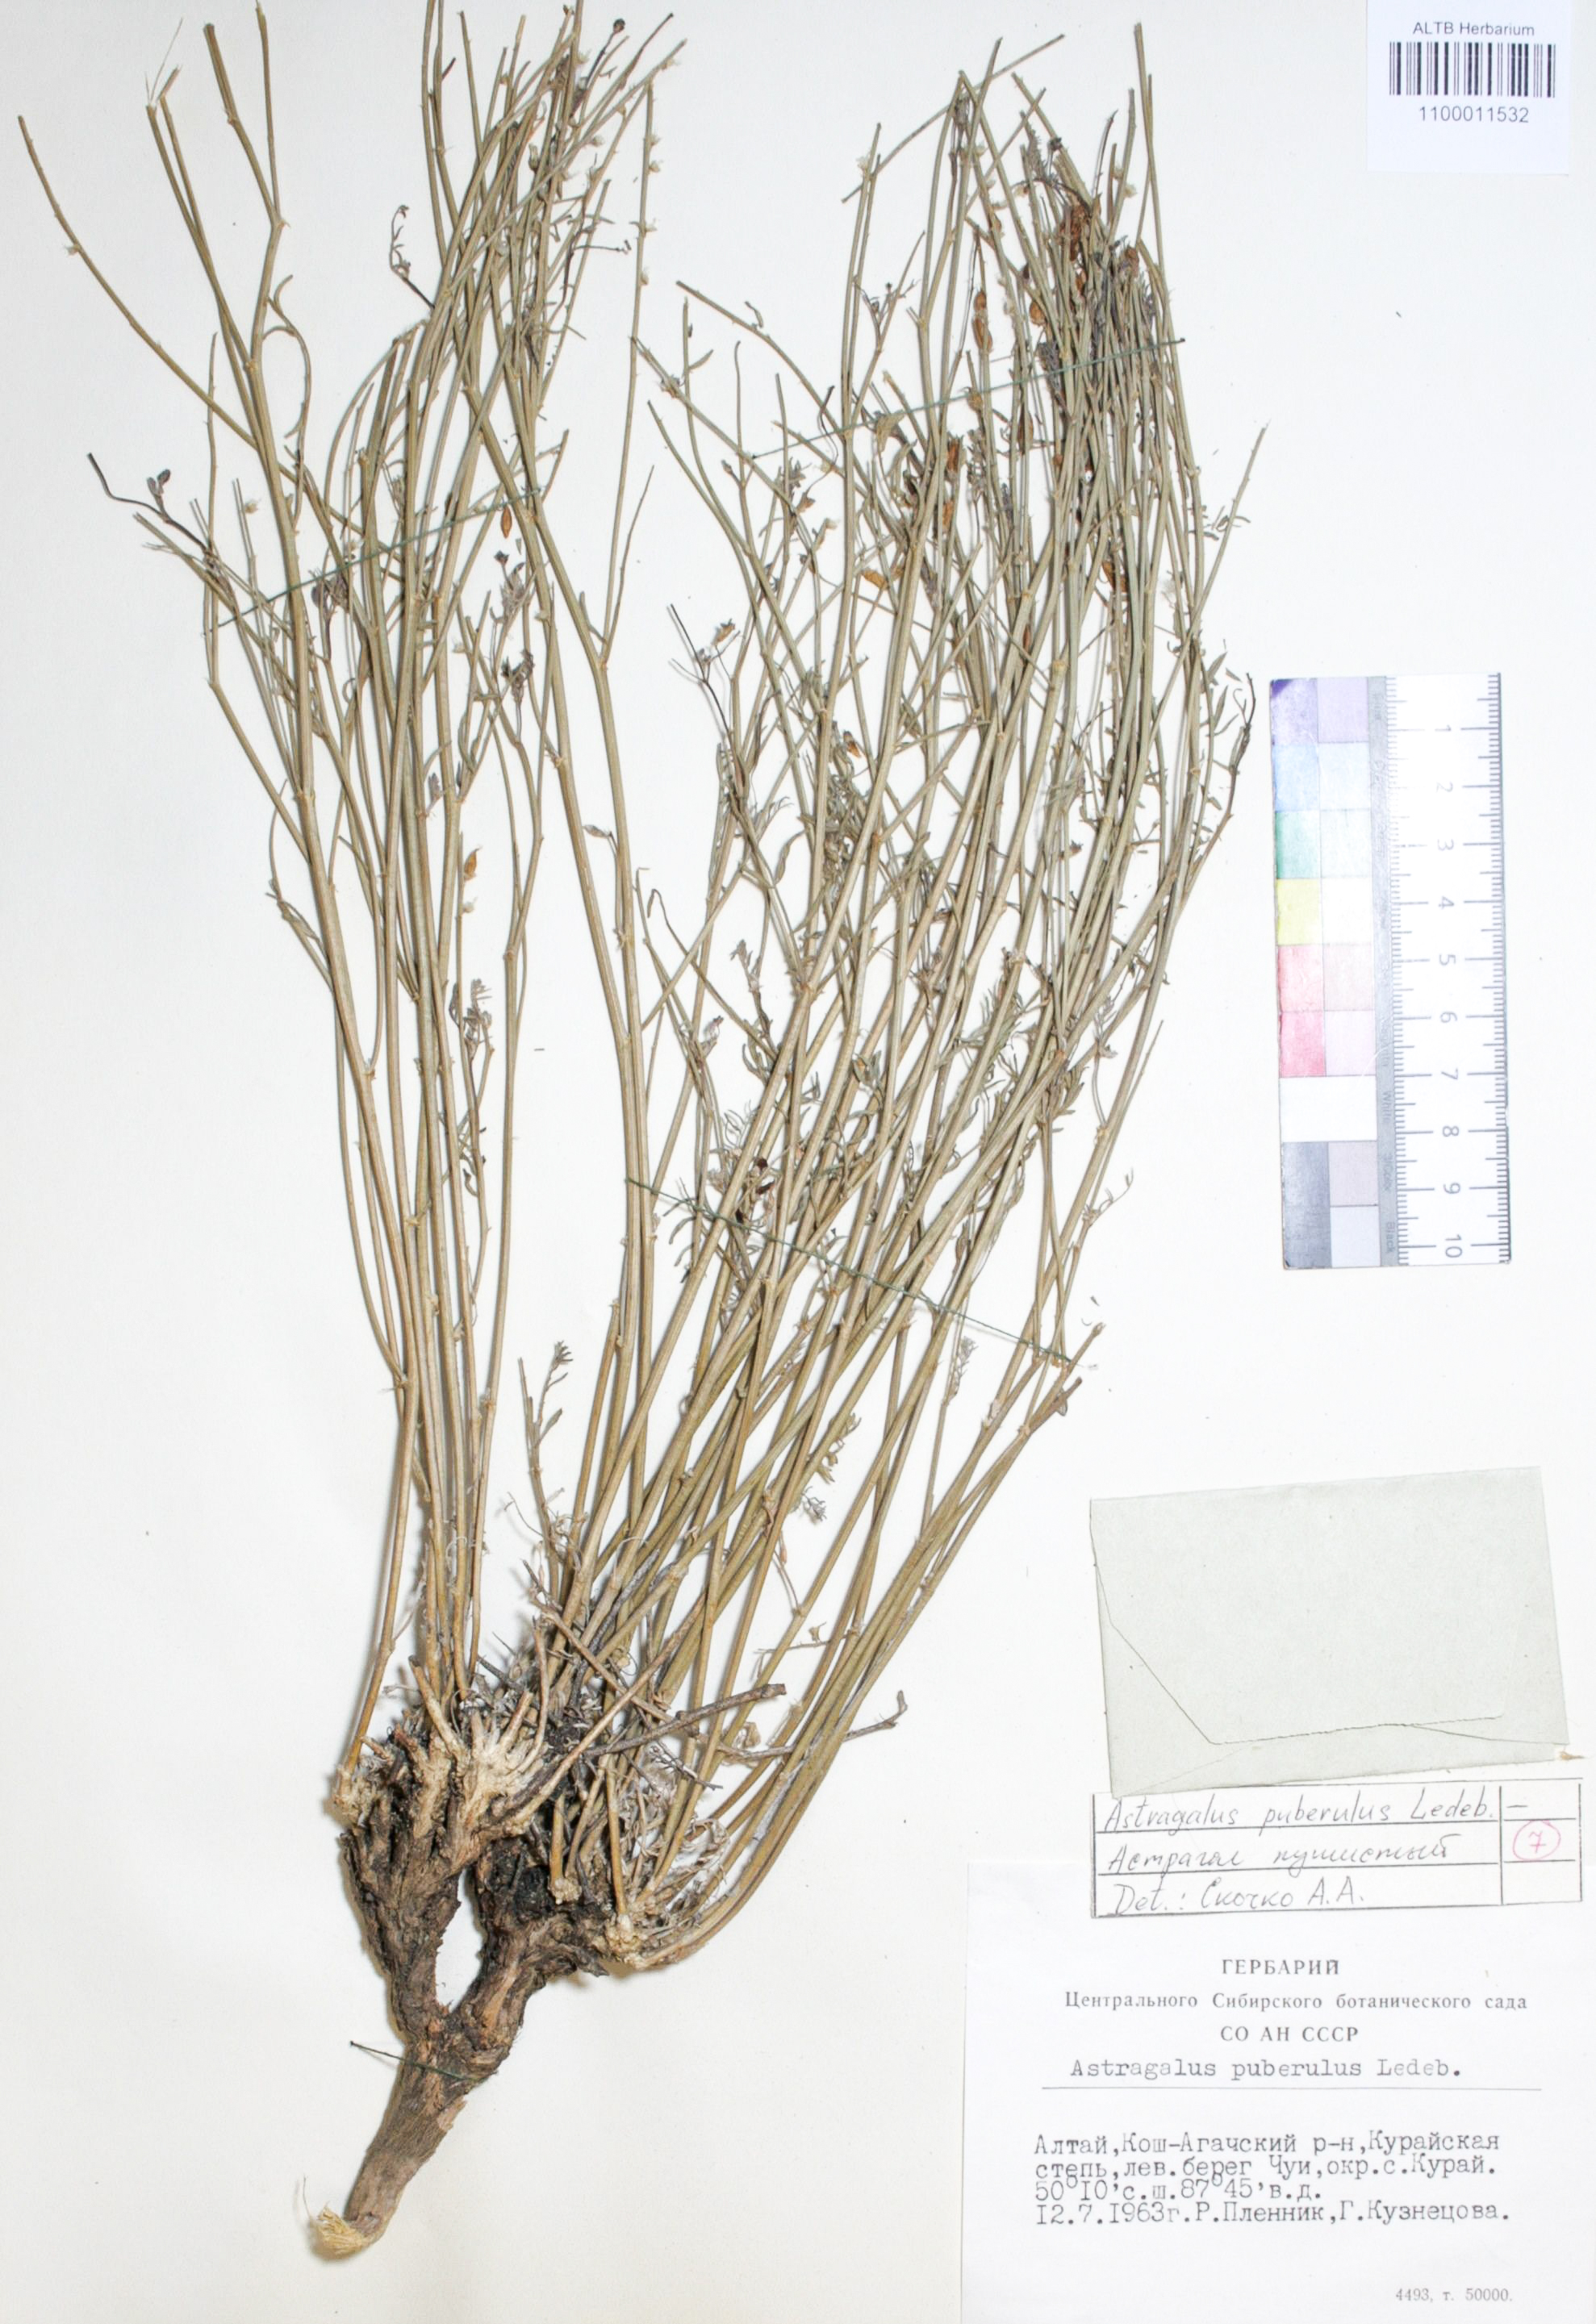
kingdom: Plantae
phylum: Tracheophyta
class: Magnoliopsida
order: Fabales
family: Fabaceae
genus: Astragalus
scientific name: Astragalus puberulus
